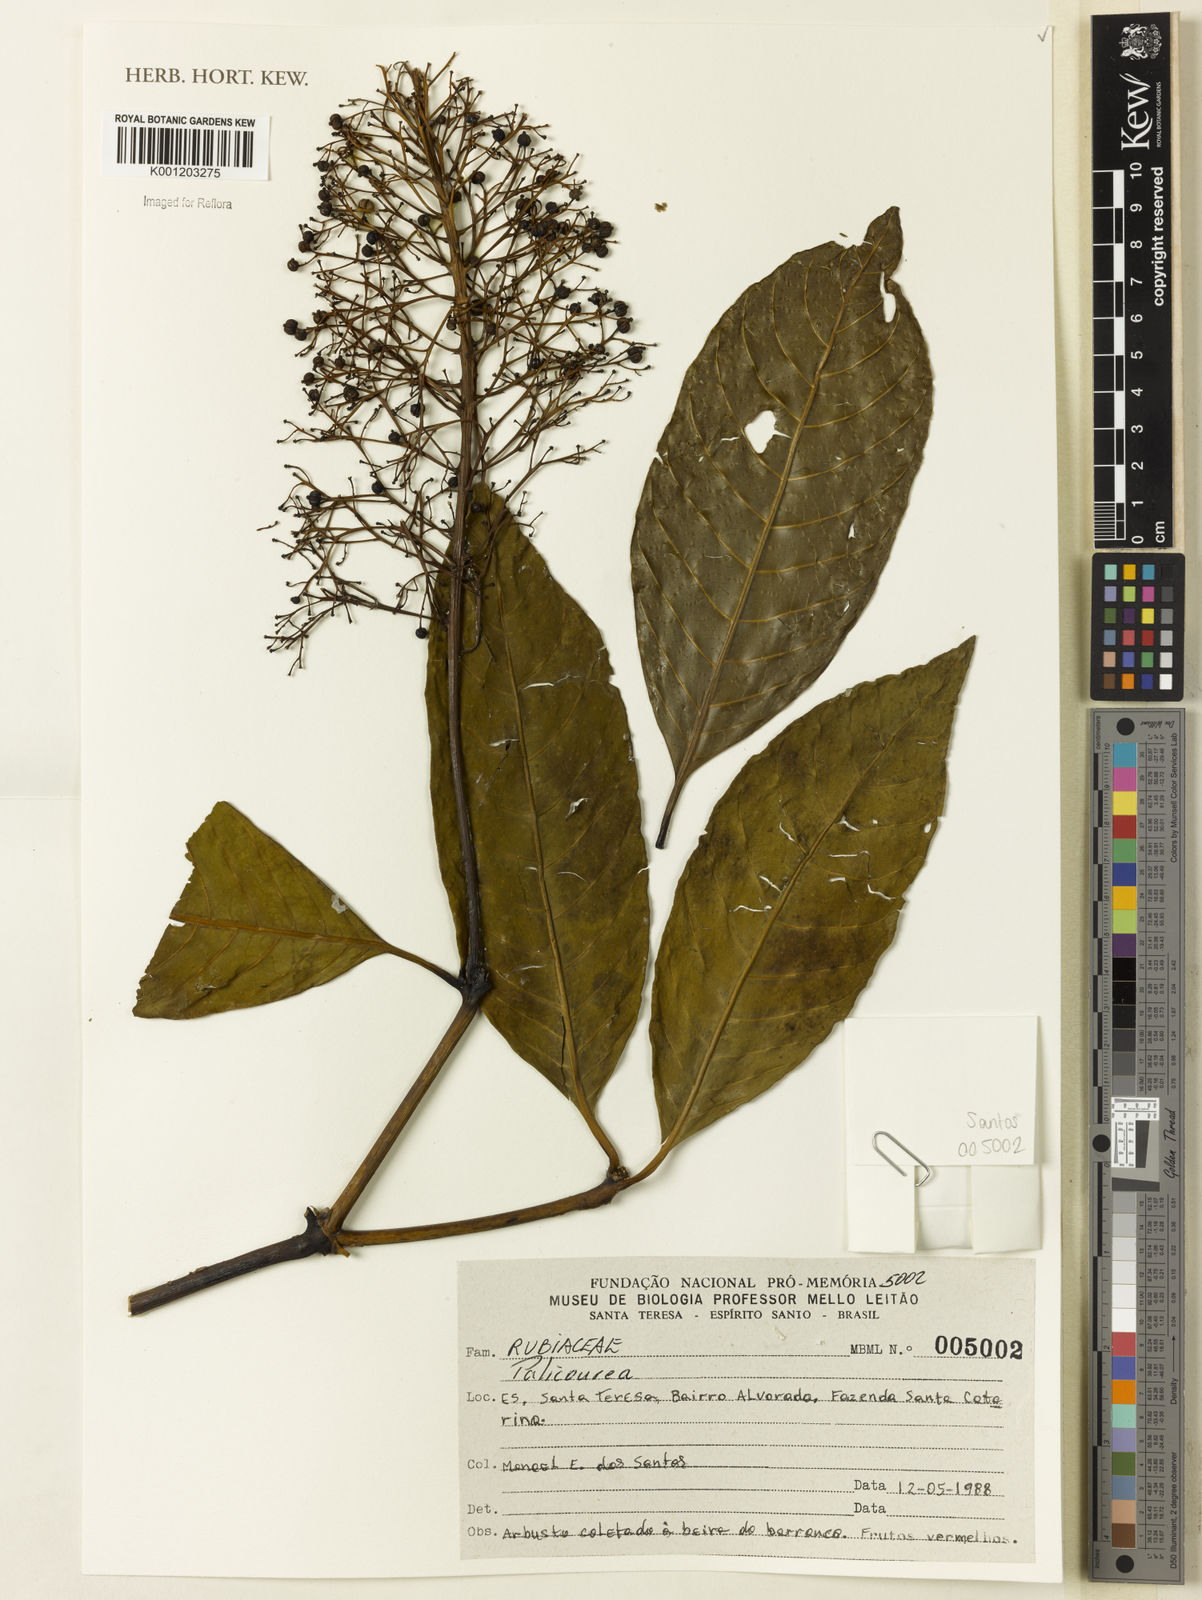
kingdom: Plantae
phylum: Tracheophyta
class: Magnoliopsida
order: Gentianales
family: Rubiaceae
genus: Palicourea
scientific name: Palicourea
